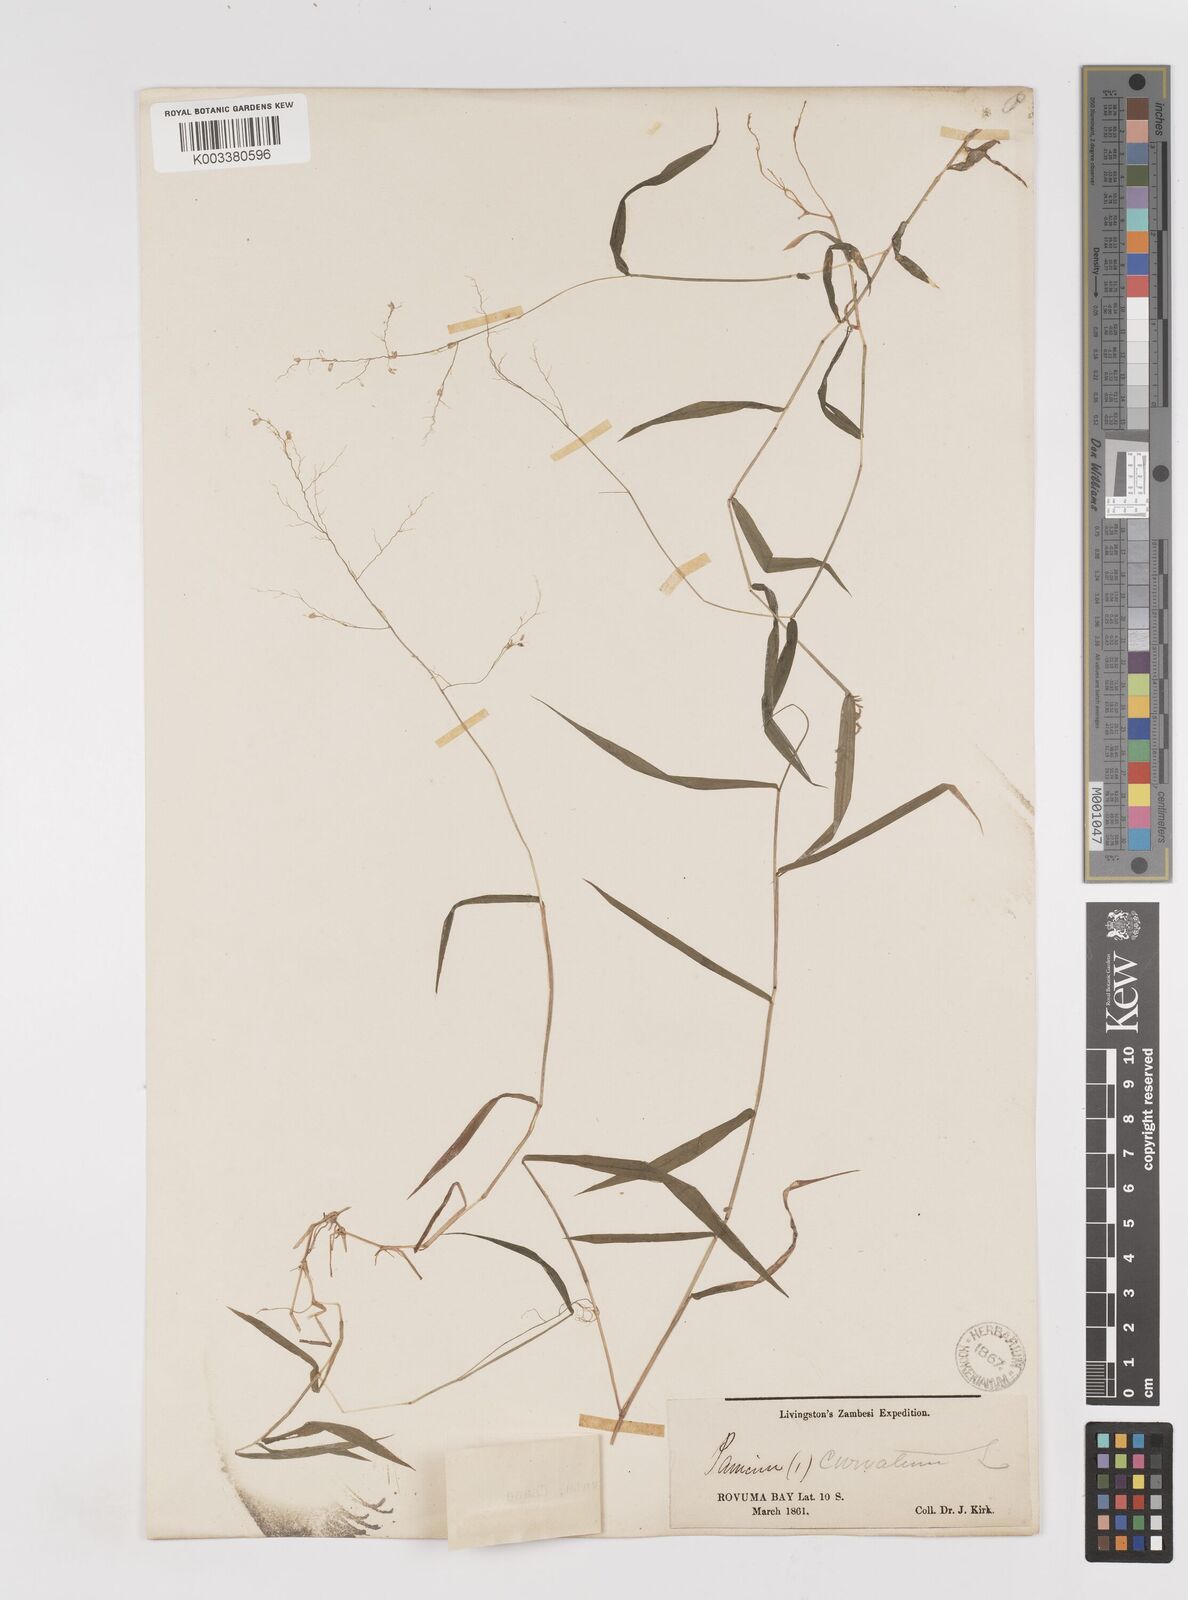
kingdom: Plantae
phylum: Tracheophyta
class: Liliopsida
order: Poales
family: Poaceae
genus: Sacciolepis
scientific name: Sacciolepis curvata
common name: Forest hood grass
